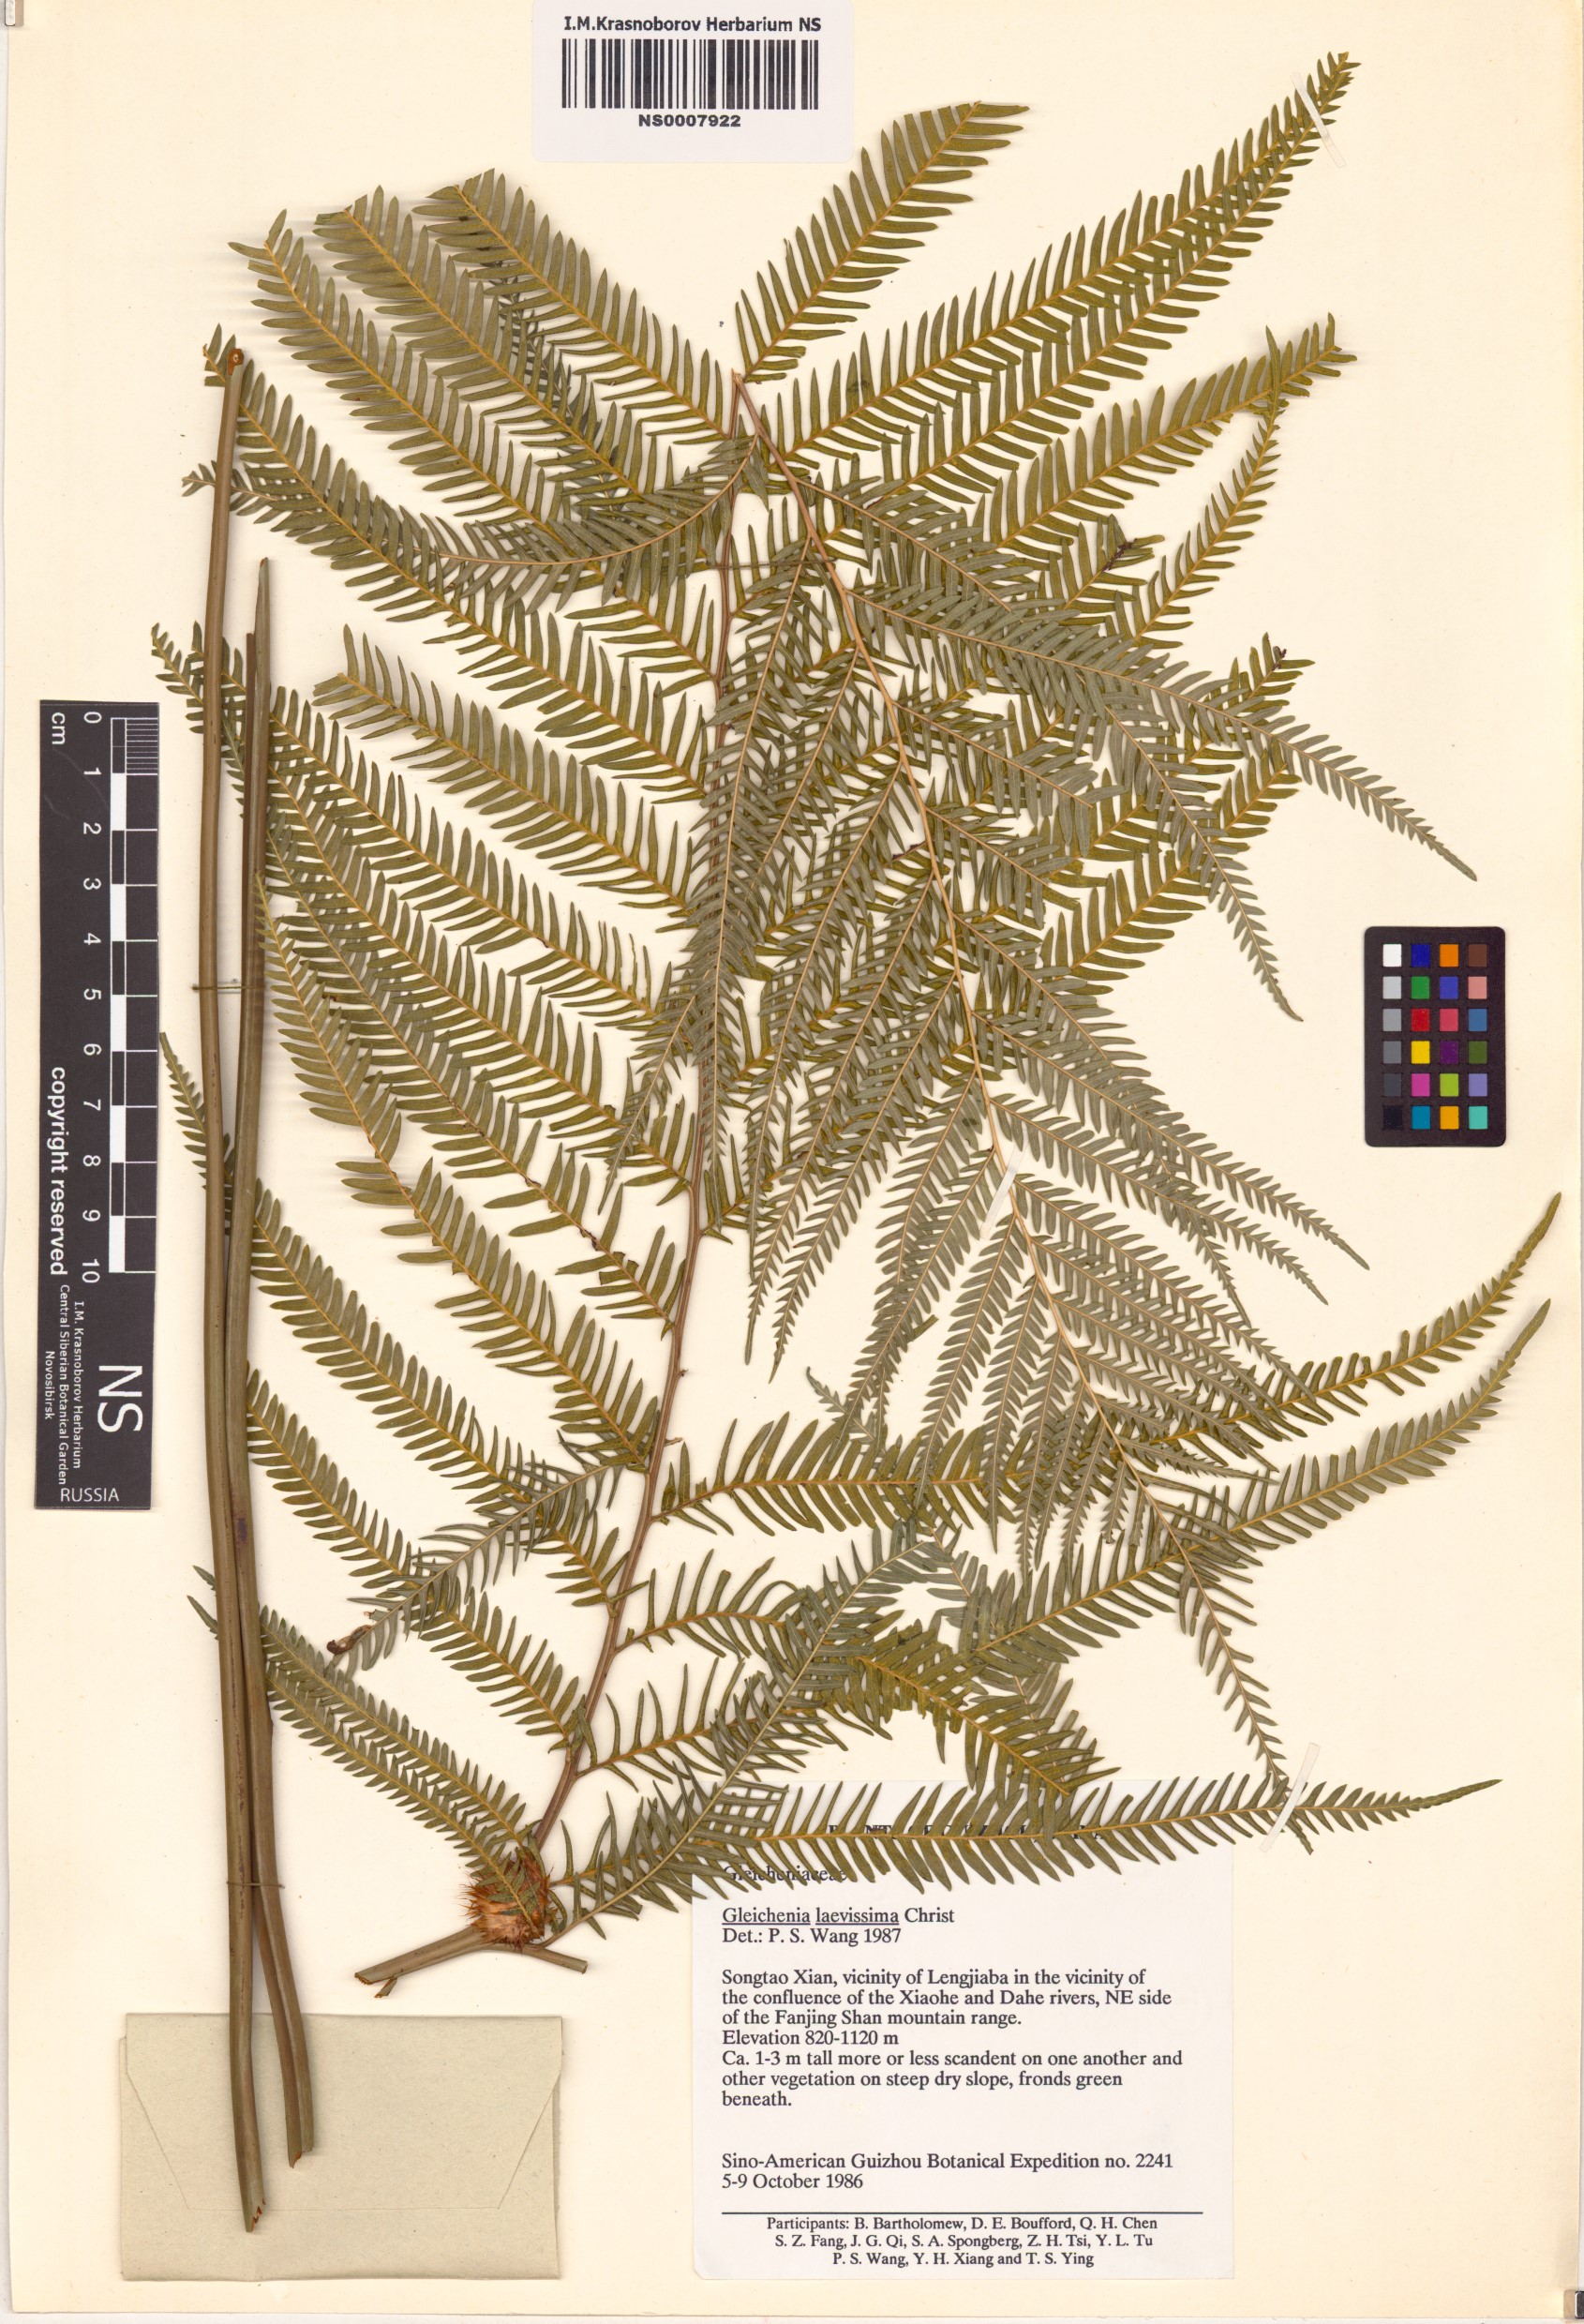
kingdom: Plantae
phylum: Tracheophyta
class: Polypodiopsida
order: Gleicheniales
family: Gleicheniaceae
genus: Diplopterygium
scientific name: Diplopterygium laevissimum
